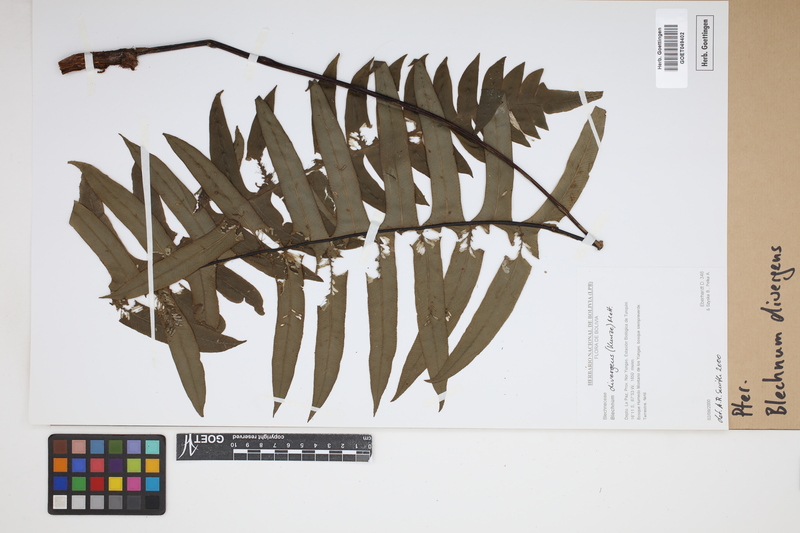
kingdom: Plantae
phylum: Tracheophyta
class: Polypodiopsida
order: Polypodiales
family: Blechnaceae
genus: Austroblechnum
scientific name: Austroblechnum divergens
